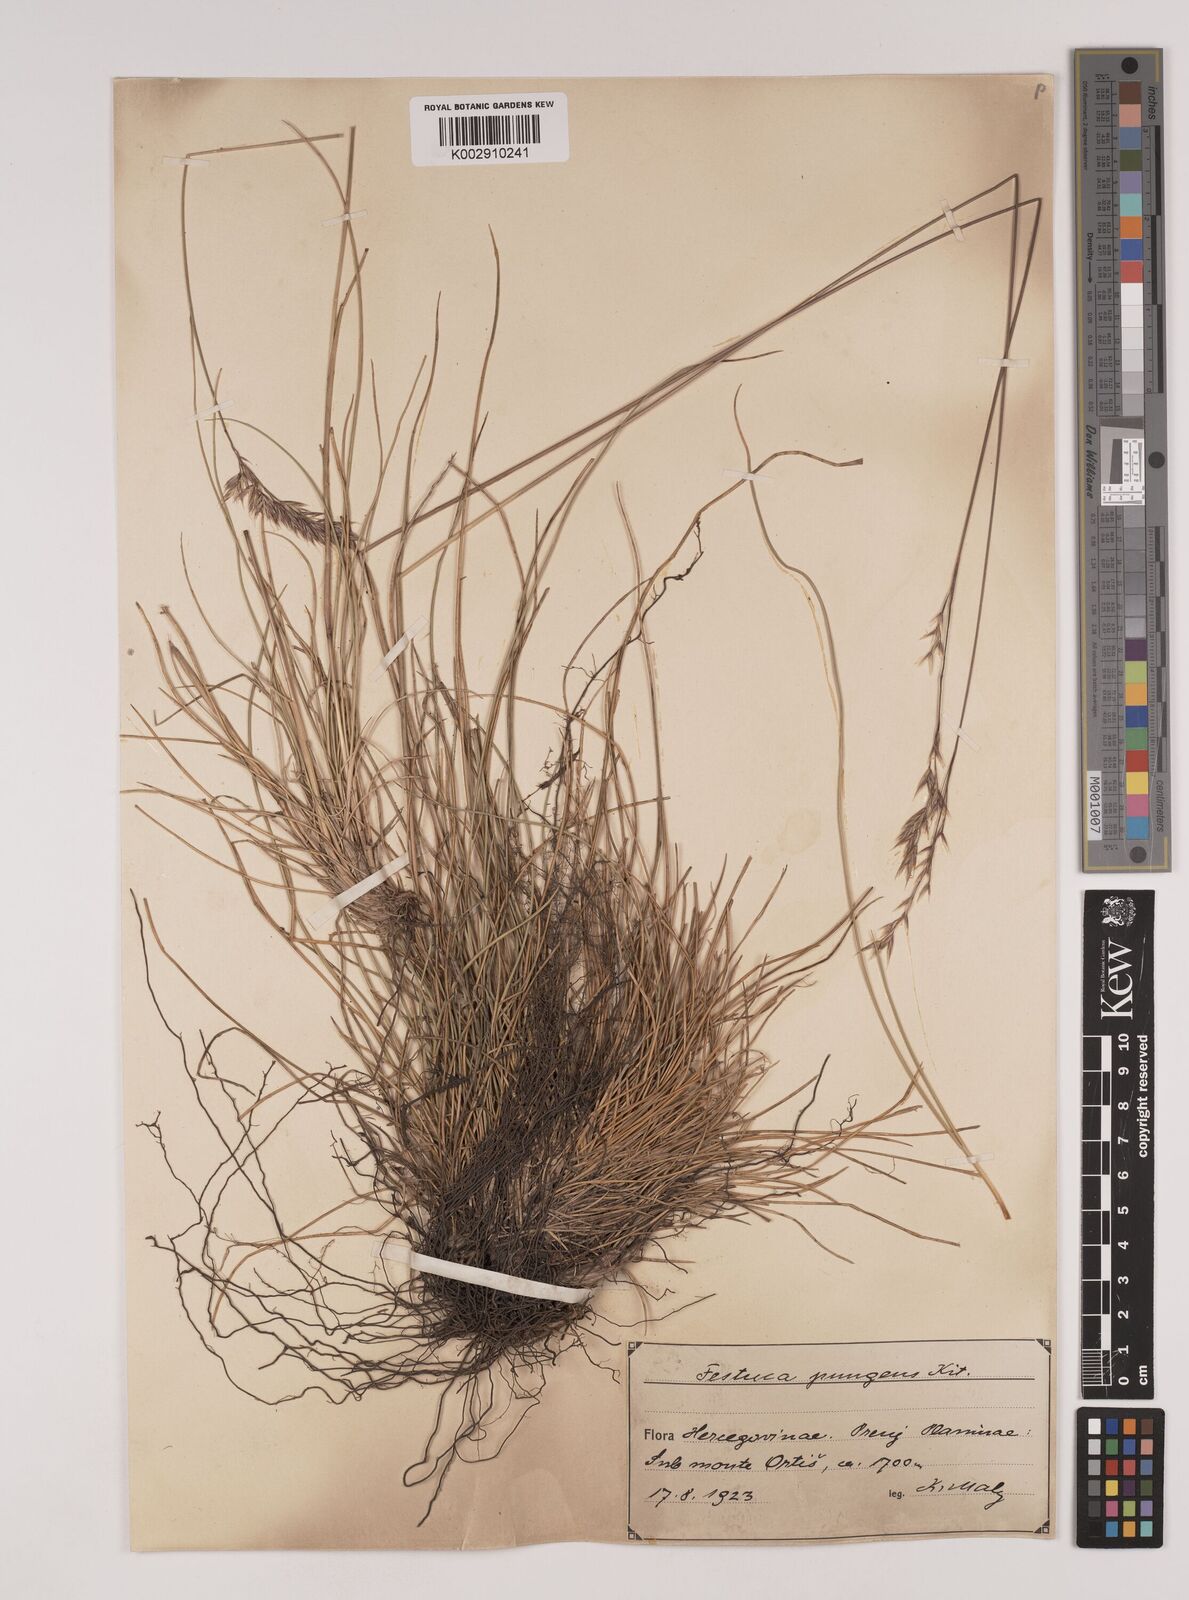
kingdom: Plantae
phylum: Tracheophyta
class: Liliopsida
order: Poales
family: Poaceae
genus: Festuca
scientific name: Festuca bosniaca
